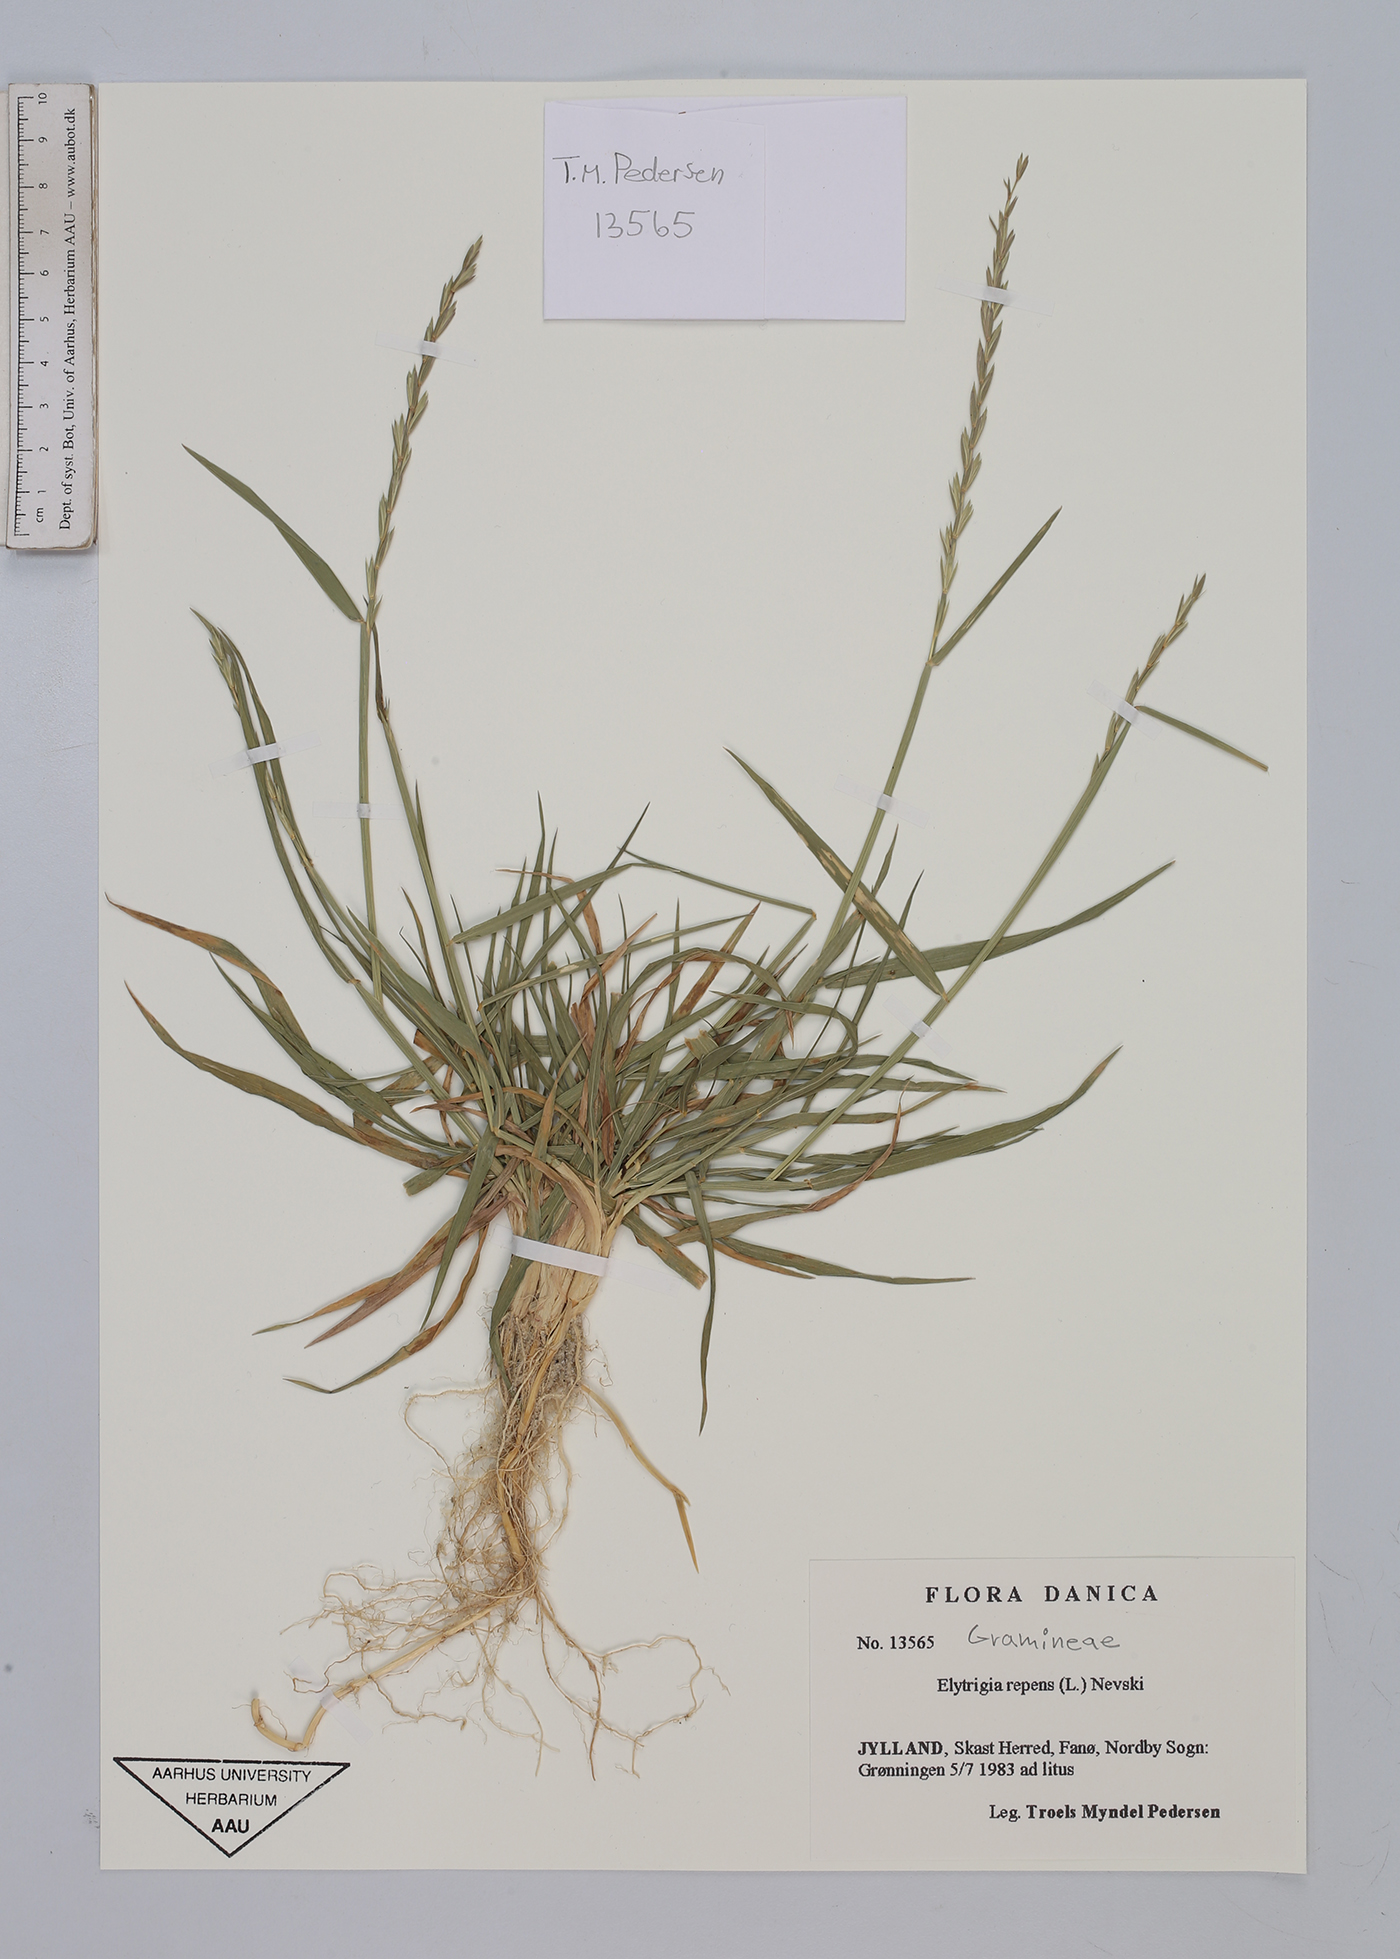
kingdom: Plantae
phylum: Tracheophyta
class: Liliopsida
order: Poales
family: Poaceae
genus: Elymus
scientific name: Elymus repens
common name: Quackgrass
